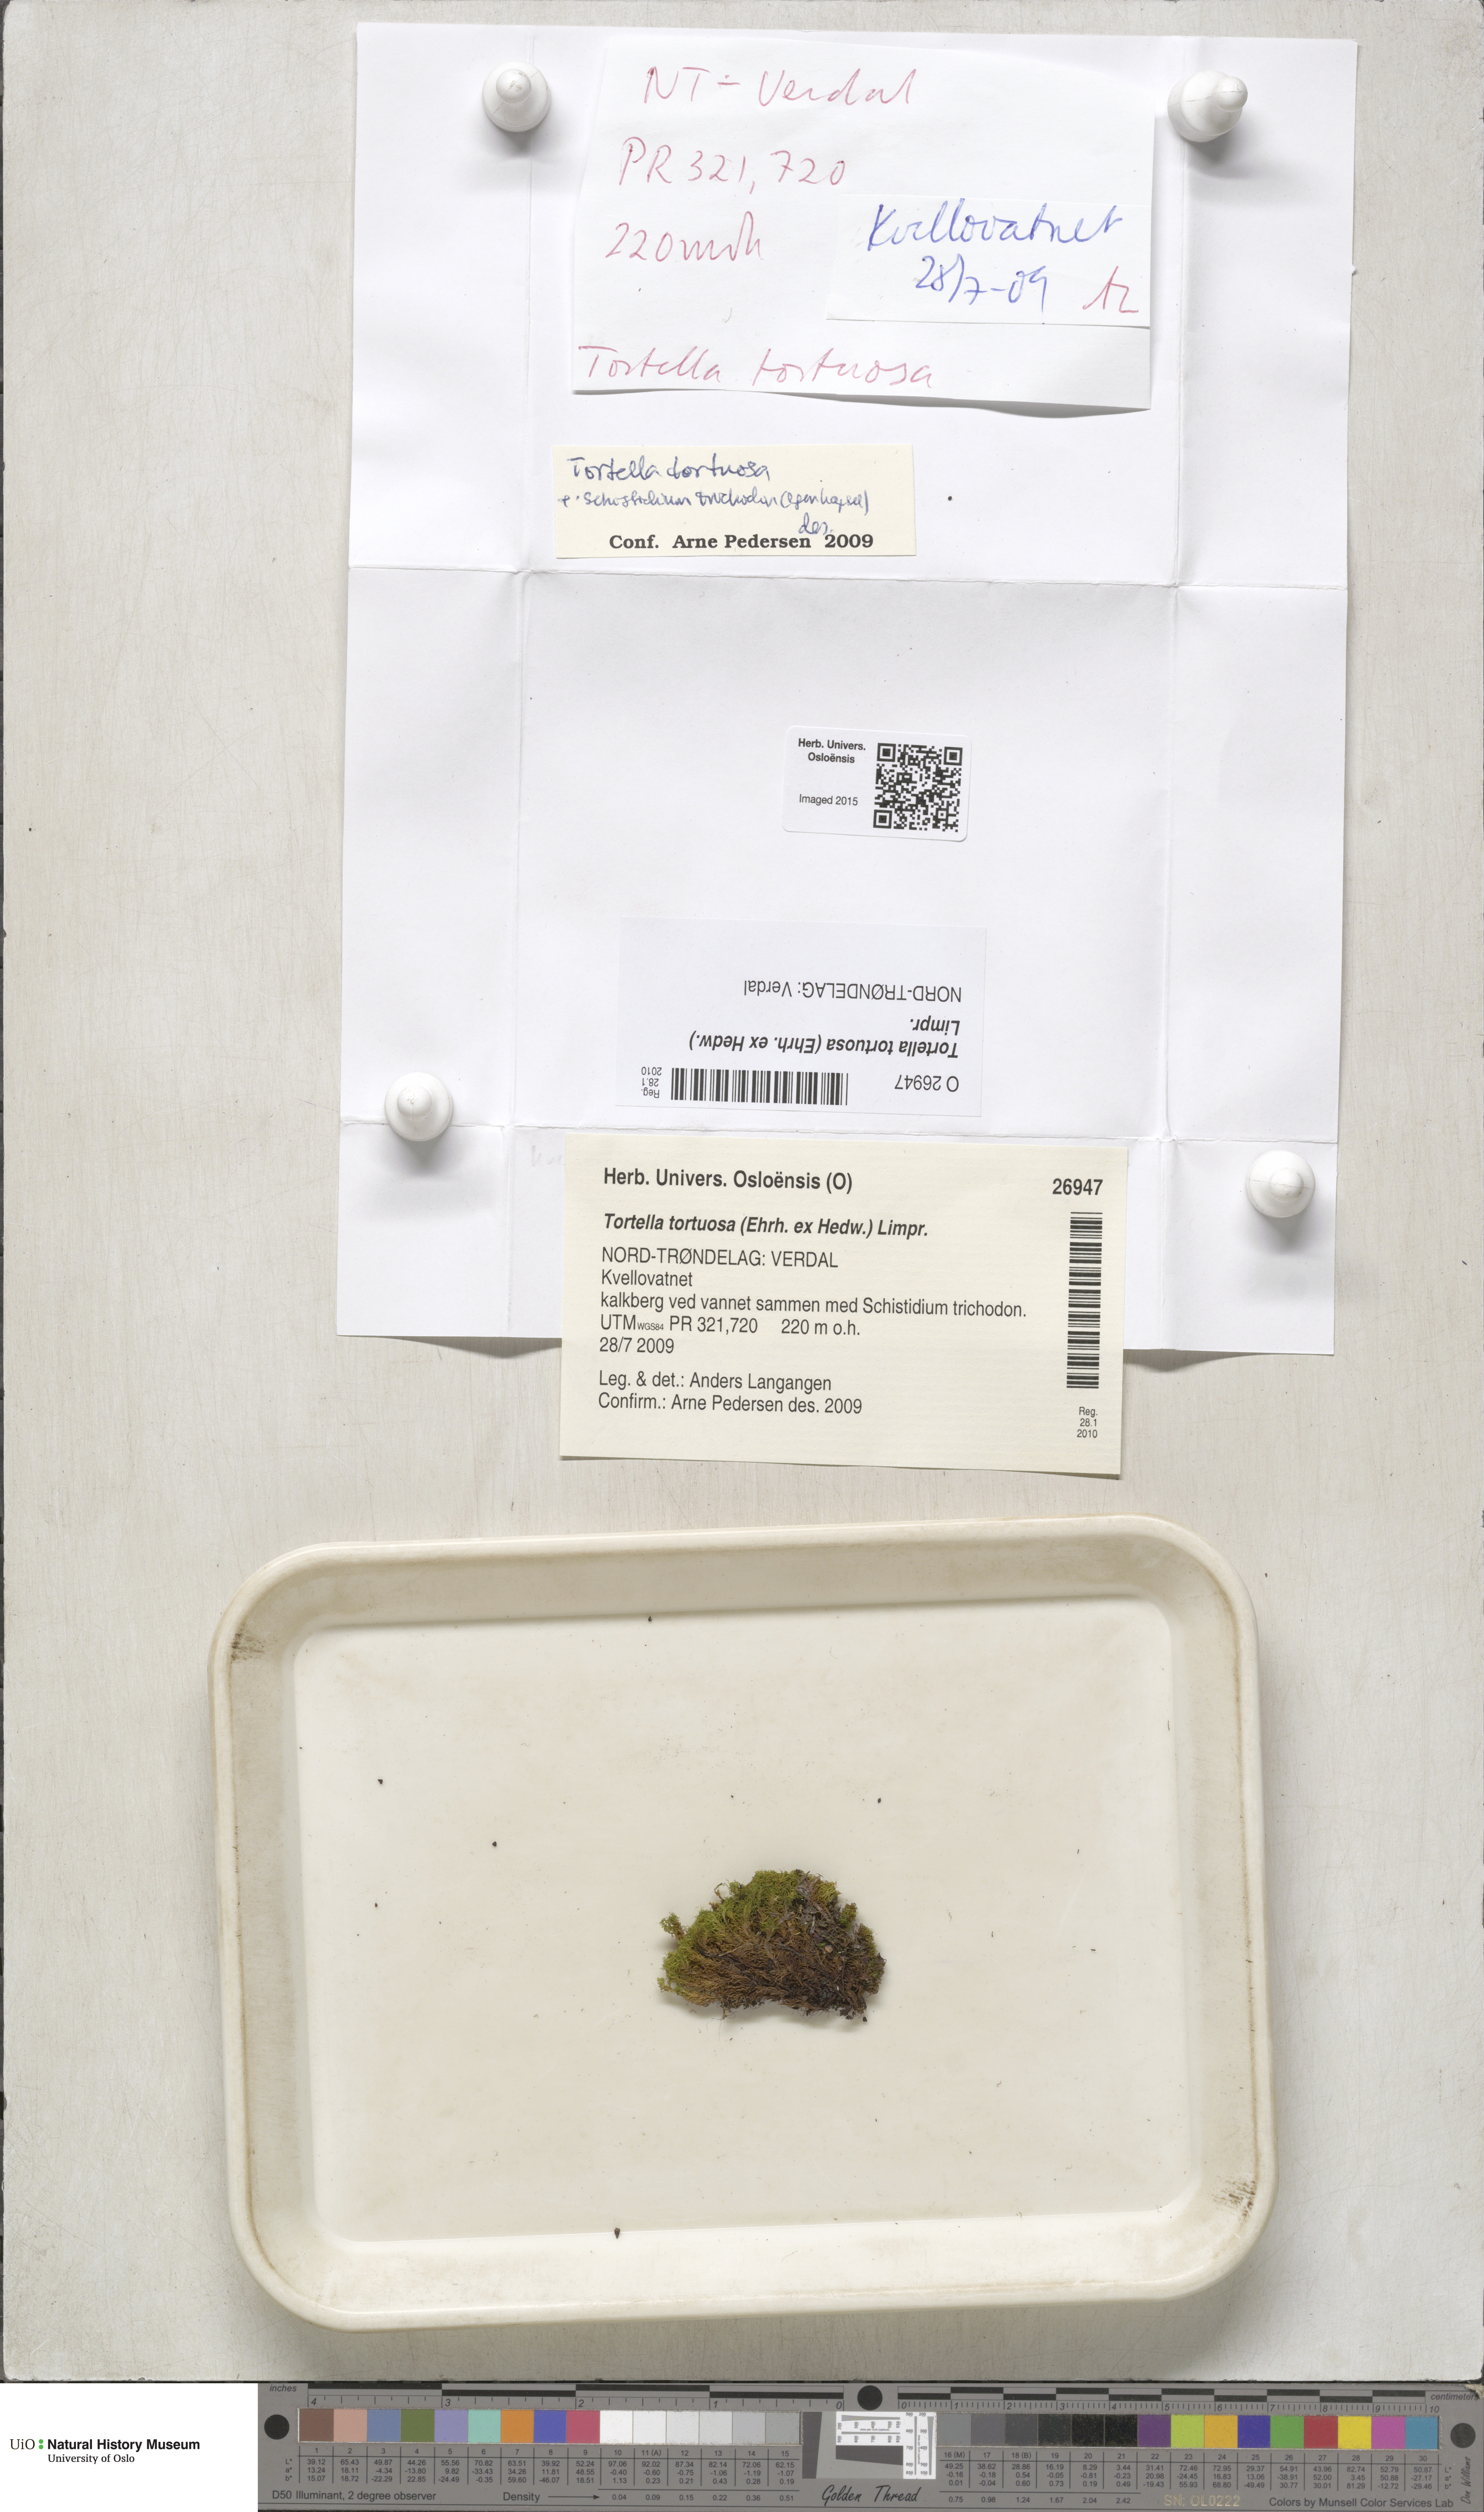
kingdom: Plantae
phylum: Bryophyta
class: Bryopsida
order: Pottiales
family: Pottiaceae
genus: Tortella
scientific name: Tortella tortuosa
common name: Frizzled crisp moss
